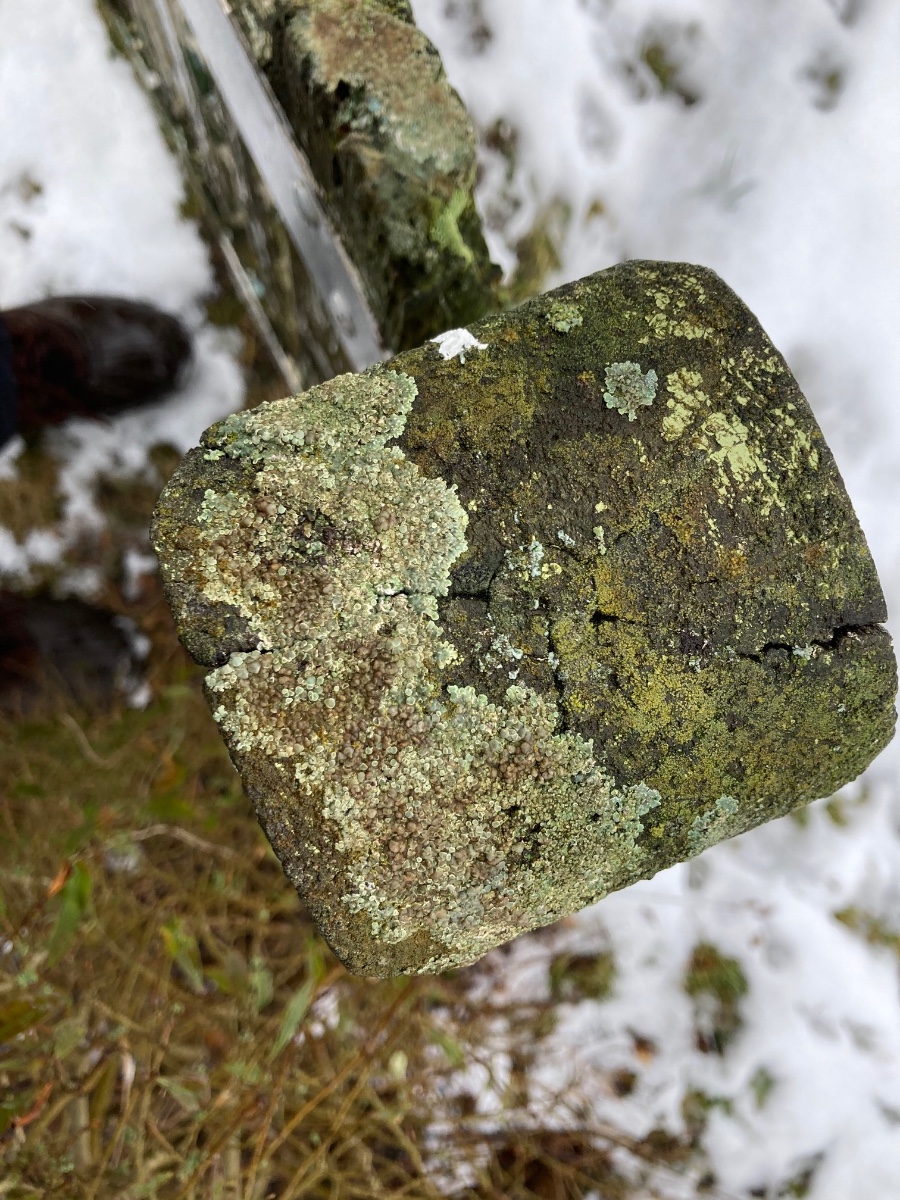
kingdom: Fungi
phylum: Ascomycota
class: Lecanoromycetes
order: Lecanorales
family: Lecanoraceae
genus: Protoparmeliopsis
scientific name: Protoparmeliopsis muralis
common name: randfliget kantskivelav
